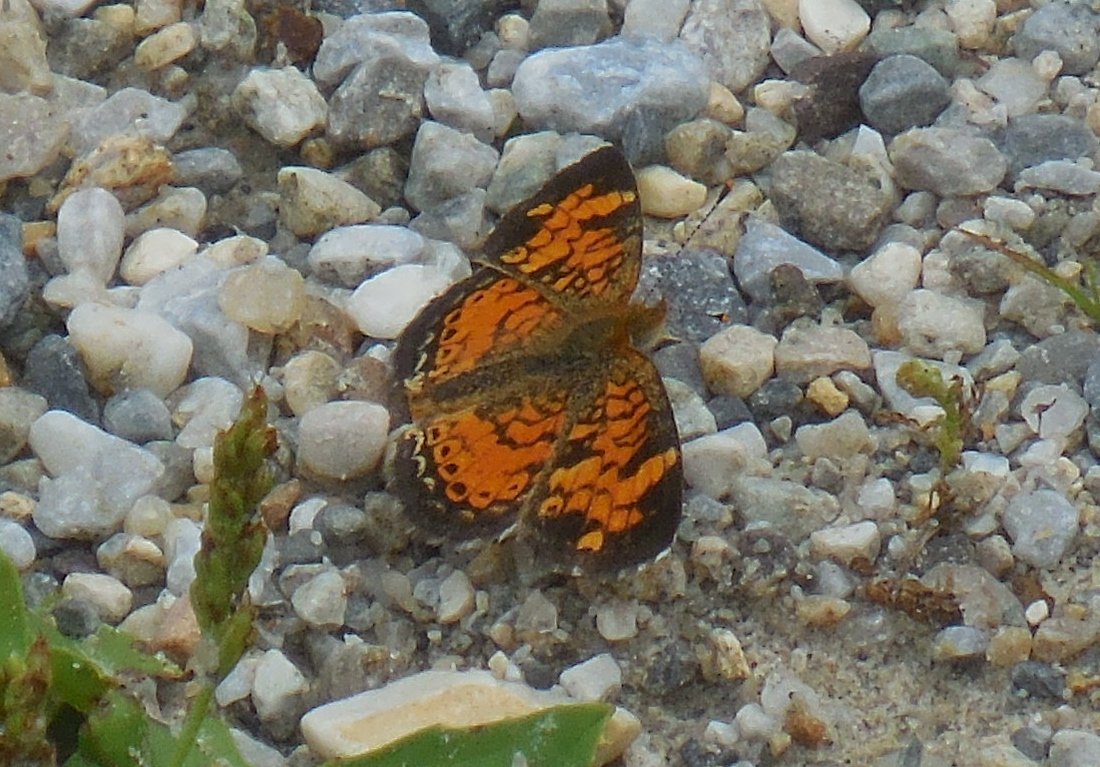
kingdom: Animalia
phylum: Arthropoda
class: Insecta
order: Lepidoptera
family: Nymphalidae
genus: Phyciodes
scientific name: Phyciodes tharos
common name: Pearl Crescent
